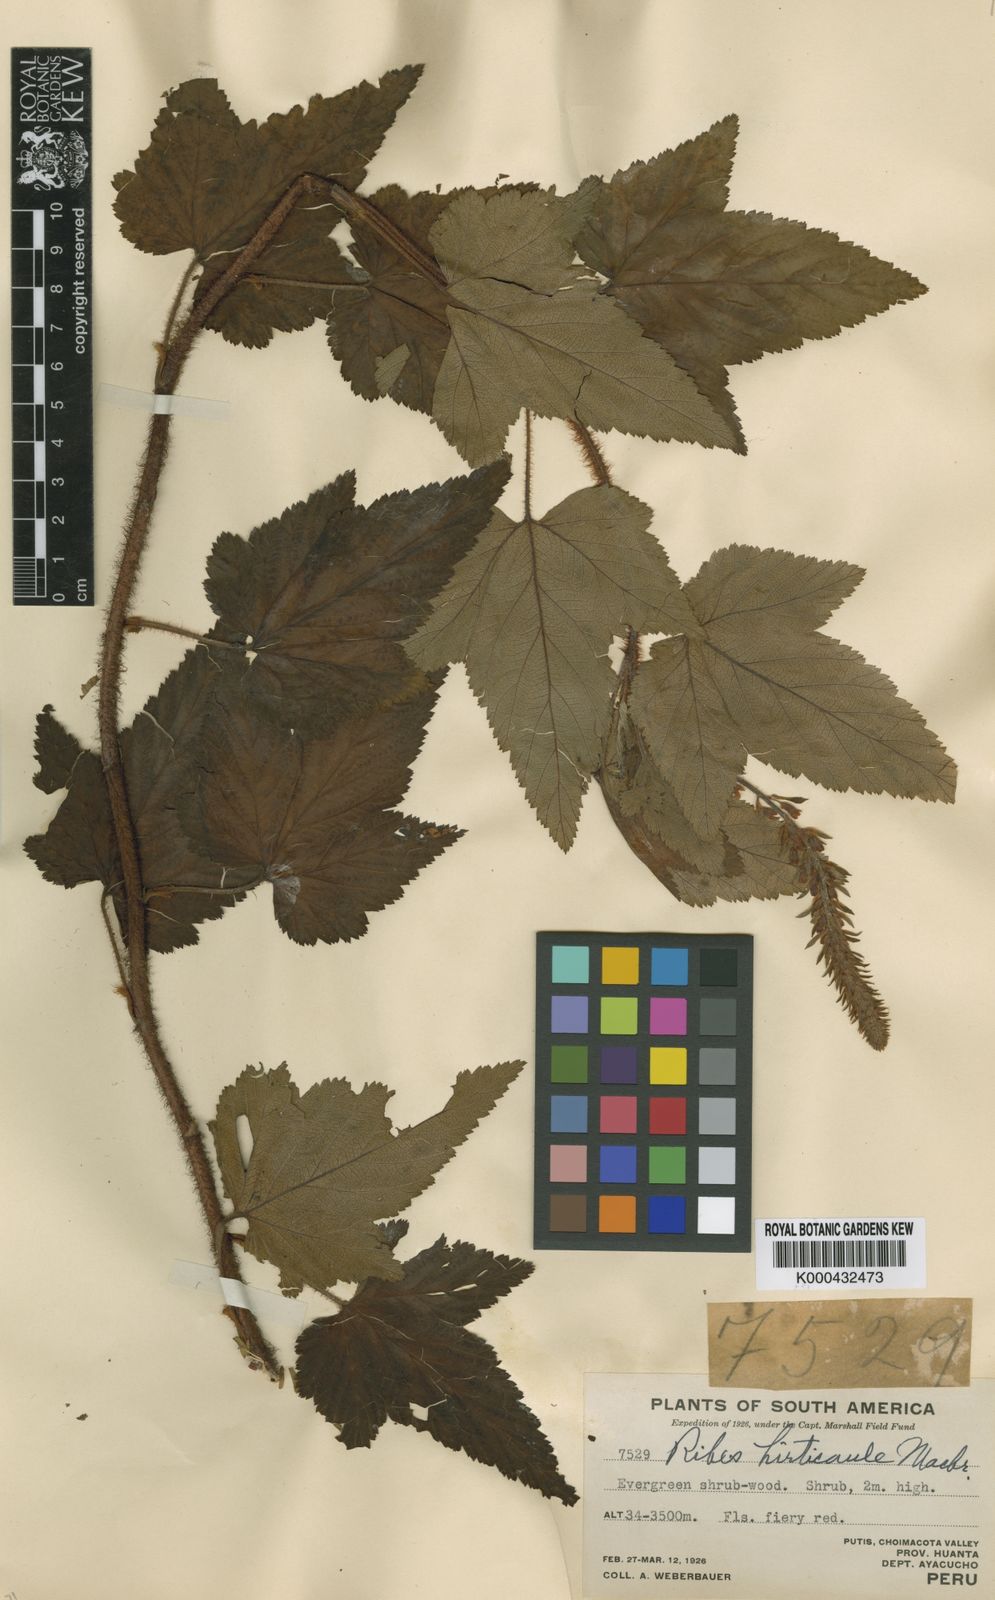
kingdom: Plantae
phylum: Tracheophyta
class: Magnoliopsida
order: Saxifragales
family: Grossulariaceae
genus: Ribes
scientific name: Ribes hirticaule
